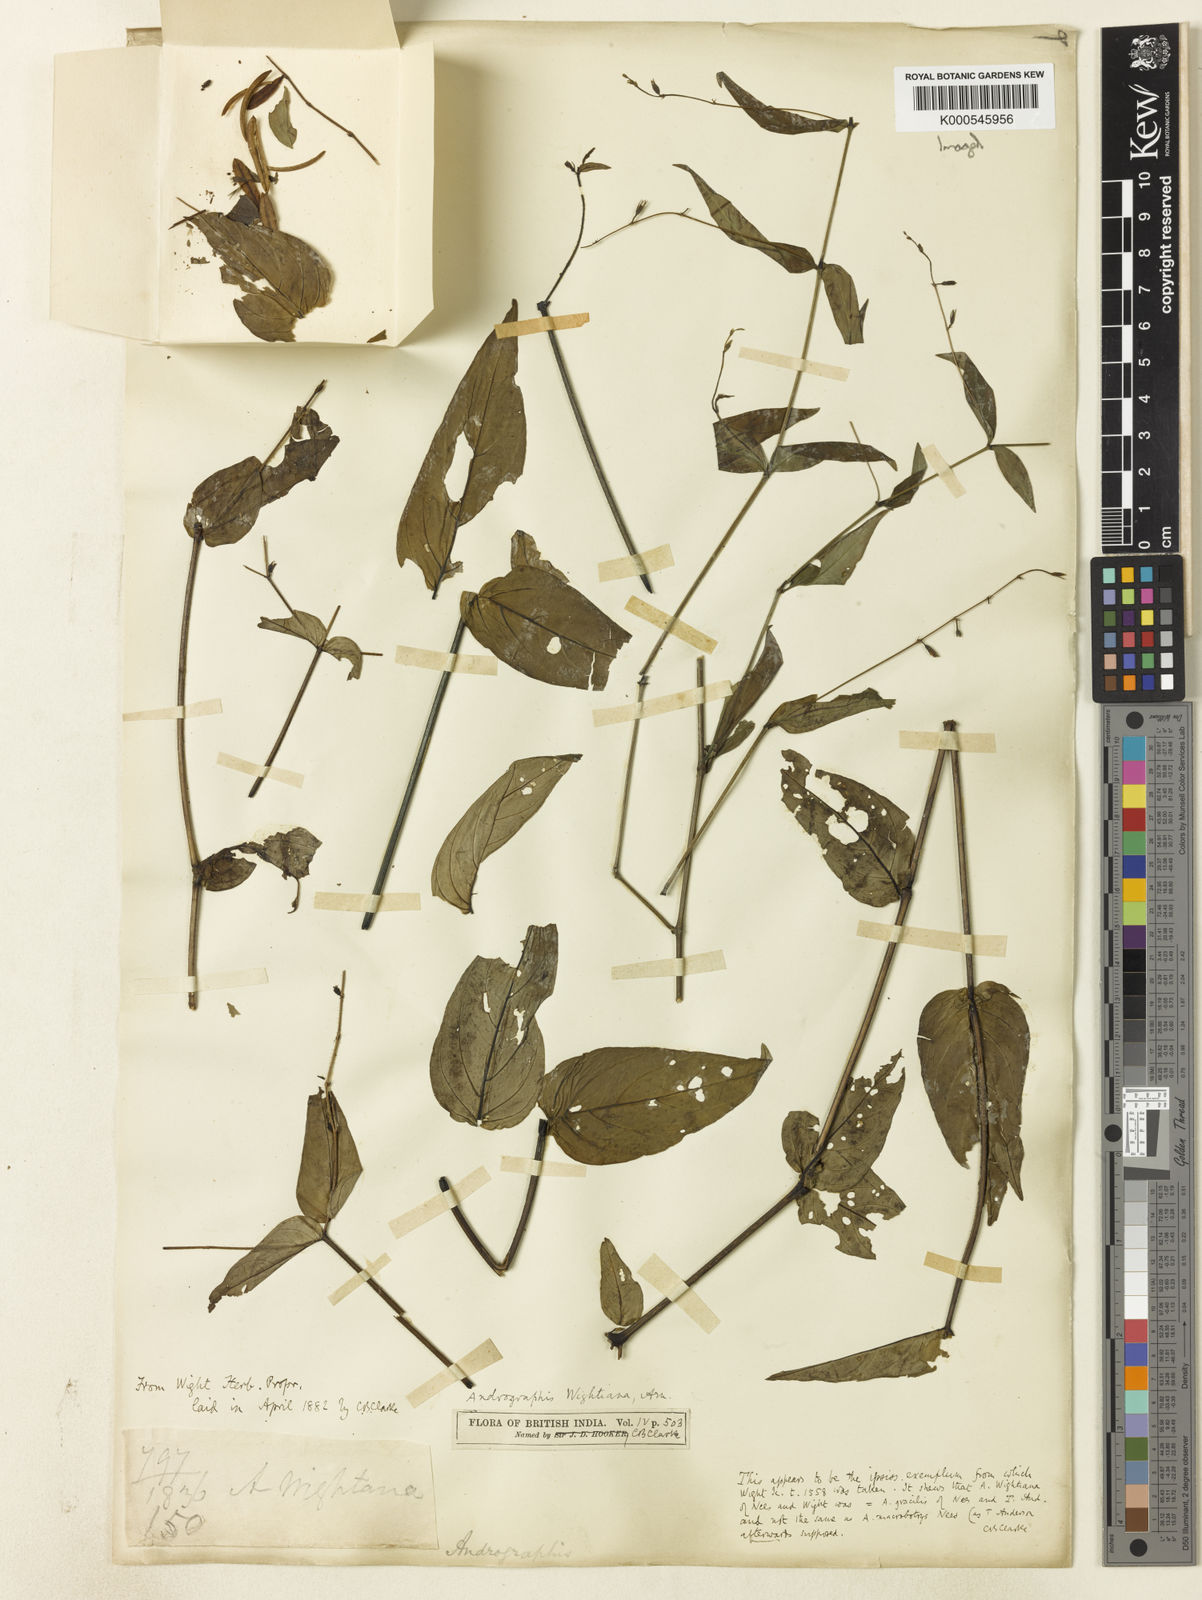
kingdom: Plantae
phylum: Tracheophyta
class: Magnoliopsida
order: Lamiales
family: Acanthaceae
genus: Andrographis
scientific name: Andrographis viscosula
